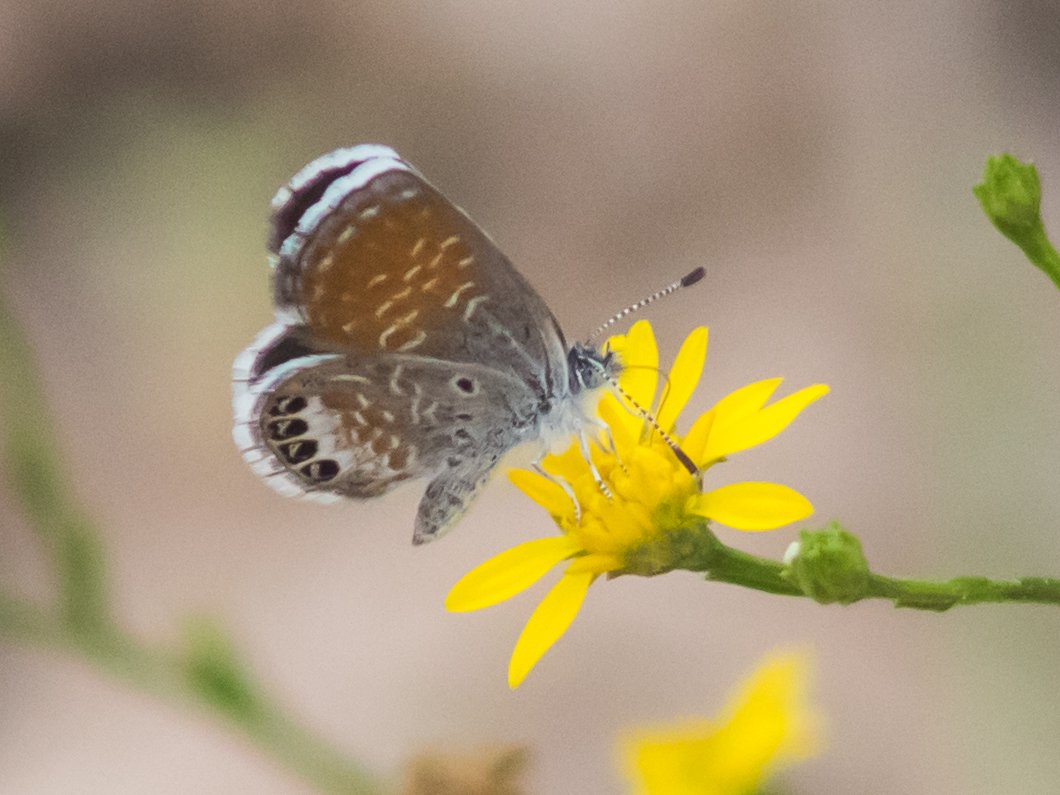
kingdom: Animalia
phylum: Arthropoda
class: Insecta
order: Lepidoptera
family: Lycaenidae
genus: Brephidium
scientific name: Brephidium exilis
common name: Western Pygmy-Blue
